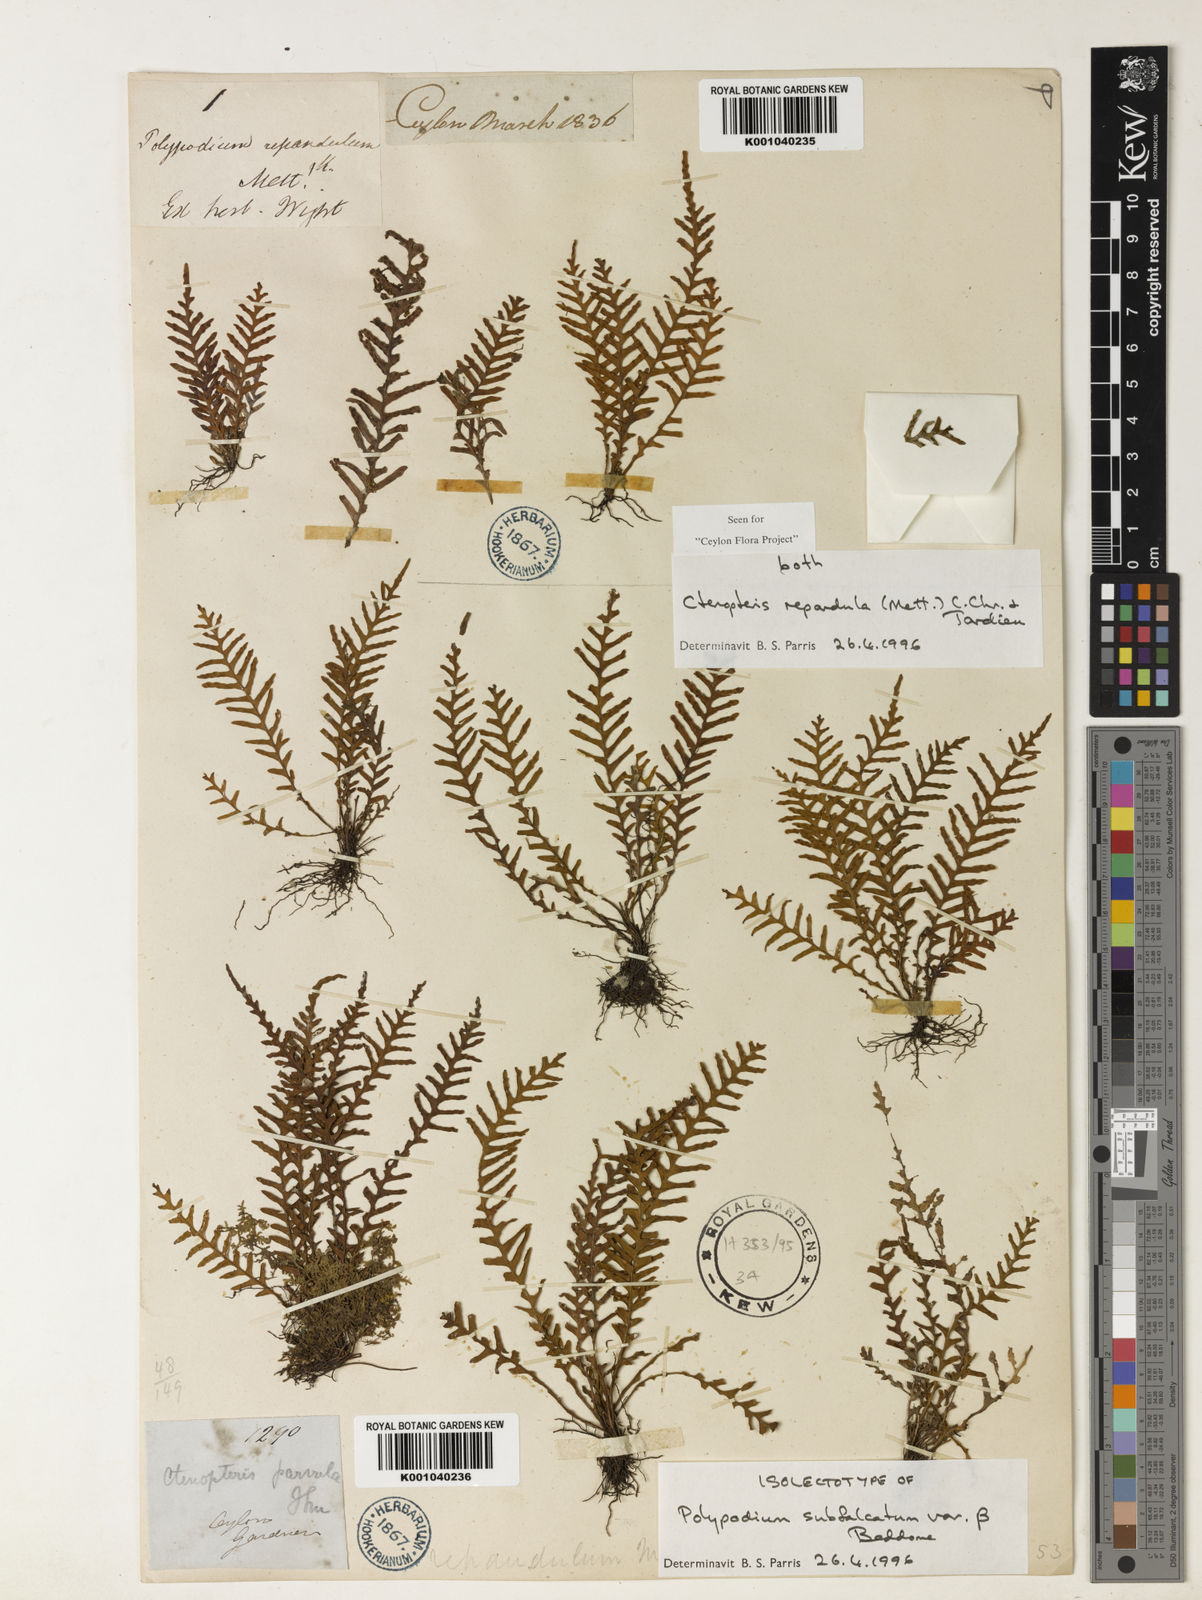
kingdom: Plantae
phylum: Tracheophyta
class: Polypodiopsida
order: Polypodiales
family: Polypodiaceae
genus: Tomophyllum
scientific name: Tomophyllum repandulum
